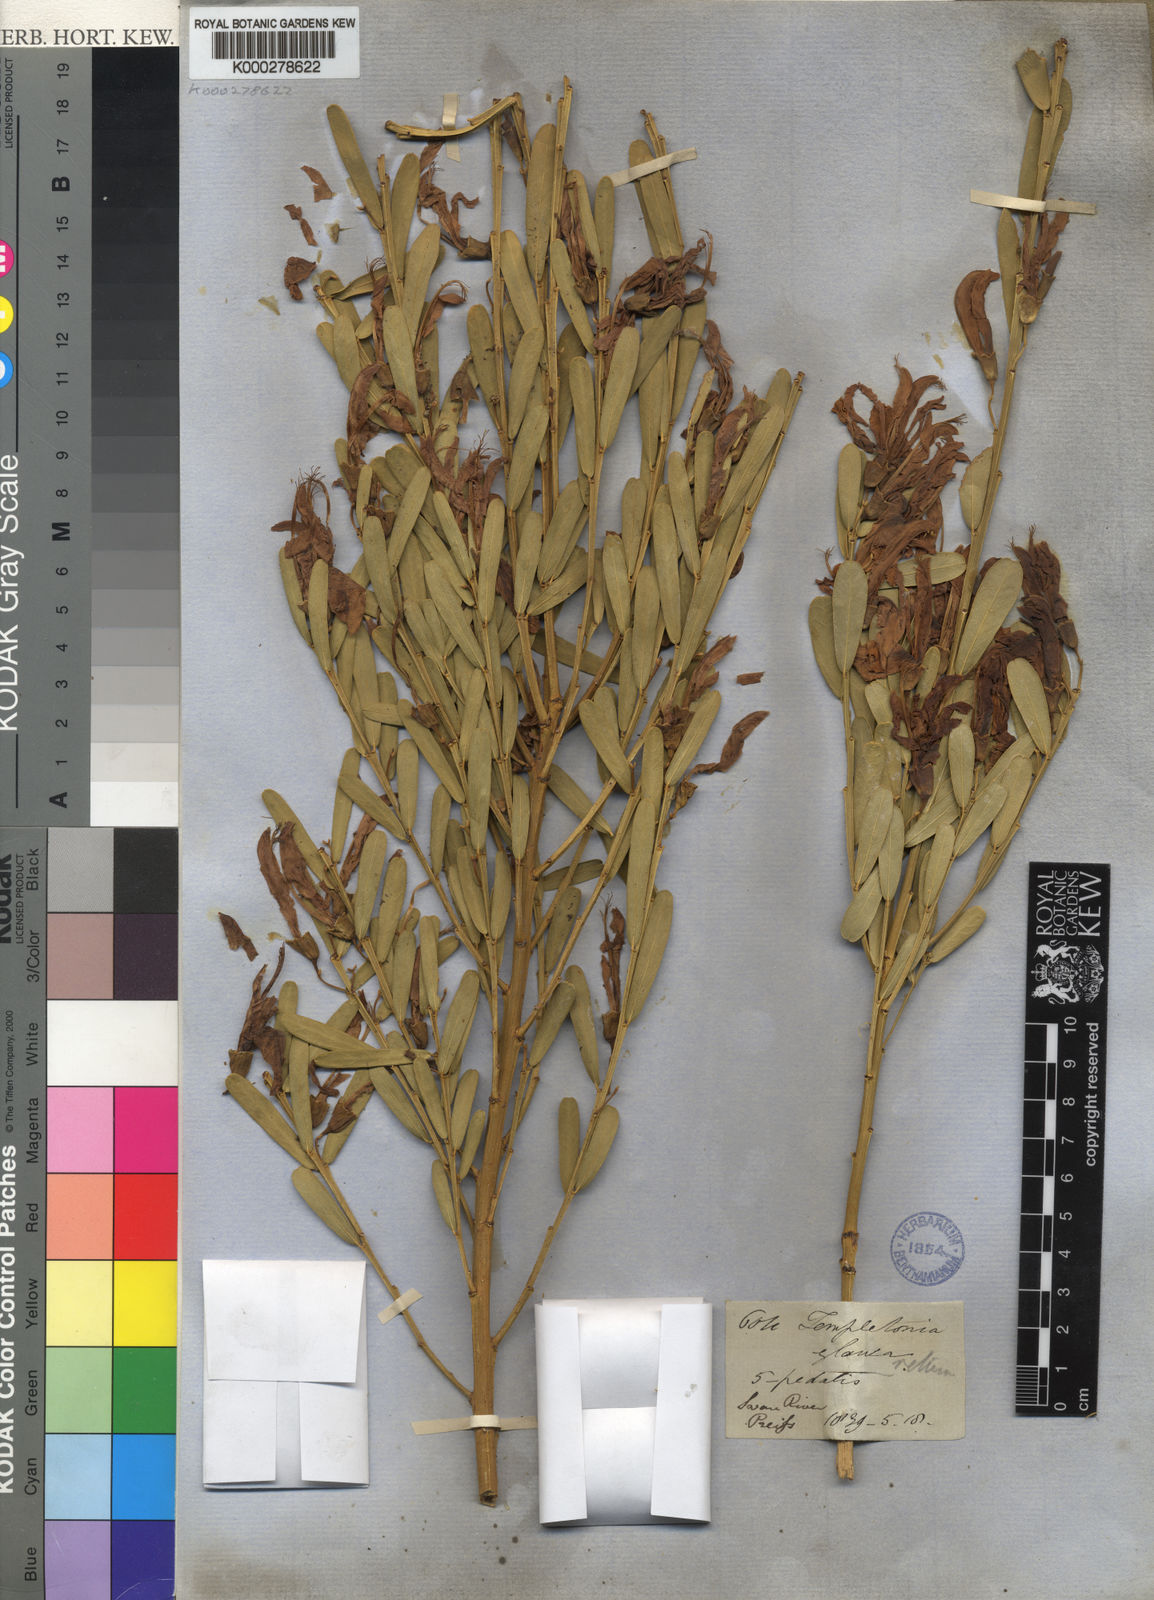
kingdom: Plantae
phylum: Tracheophyta
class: Magnoliopsida
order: Fabales
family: Fabaceae
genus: Templetonia
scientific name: Templetonia retusa
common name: Cockies'-tongue
